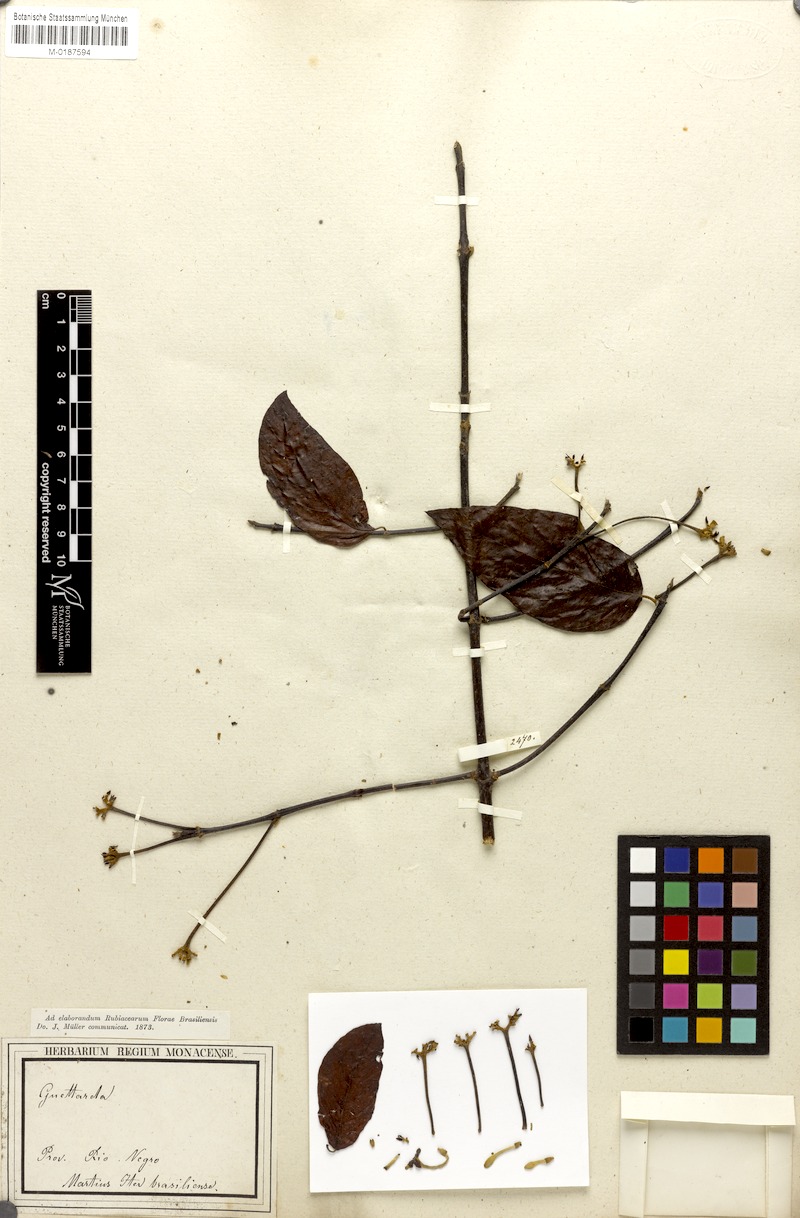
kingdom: Plantae
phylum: Tracheophyta
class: Magnoliopsida
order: Gentianales
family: Rubiaceae
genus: Guettarda
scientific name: Guettarda aromatica
